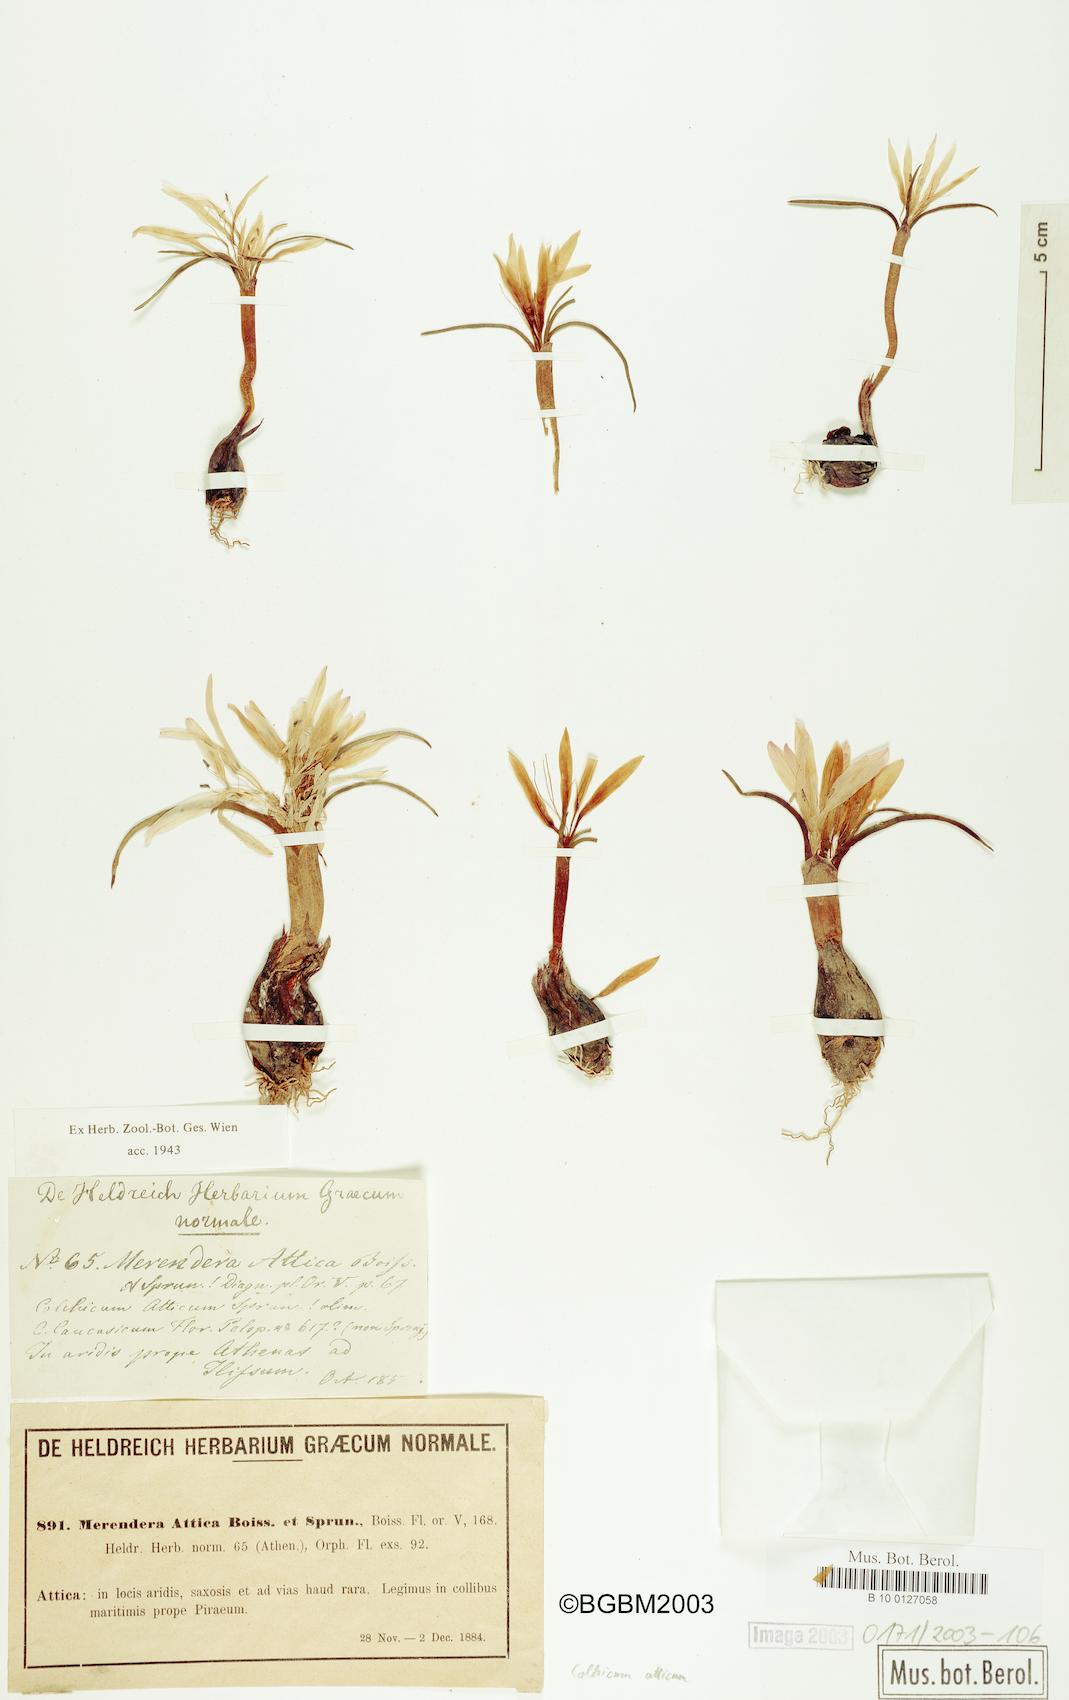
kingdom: Plantae
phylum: Tracheophyta
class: Liliopsida
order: Liliales
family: Colchicaceae
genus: Colchicum
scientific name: Colchicum atticum
